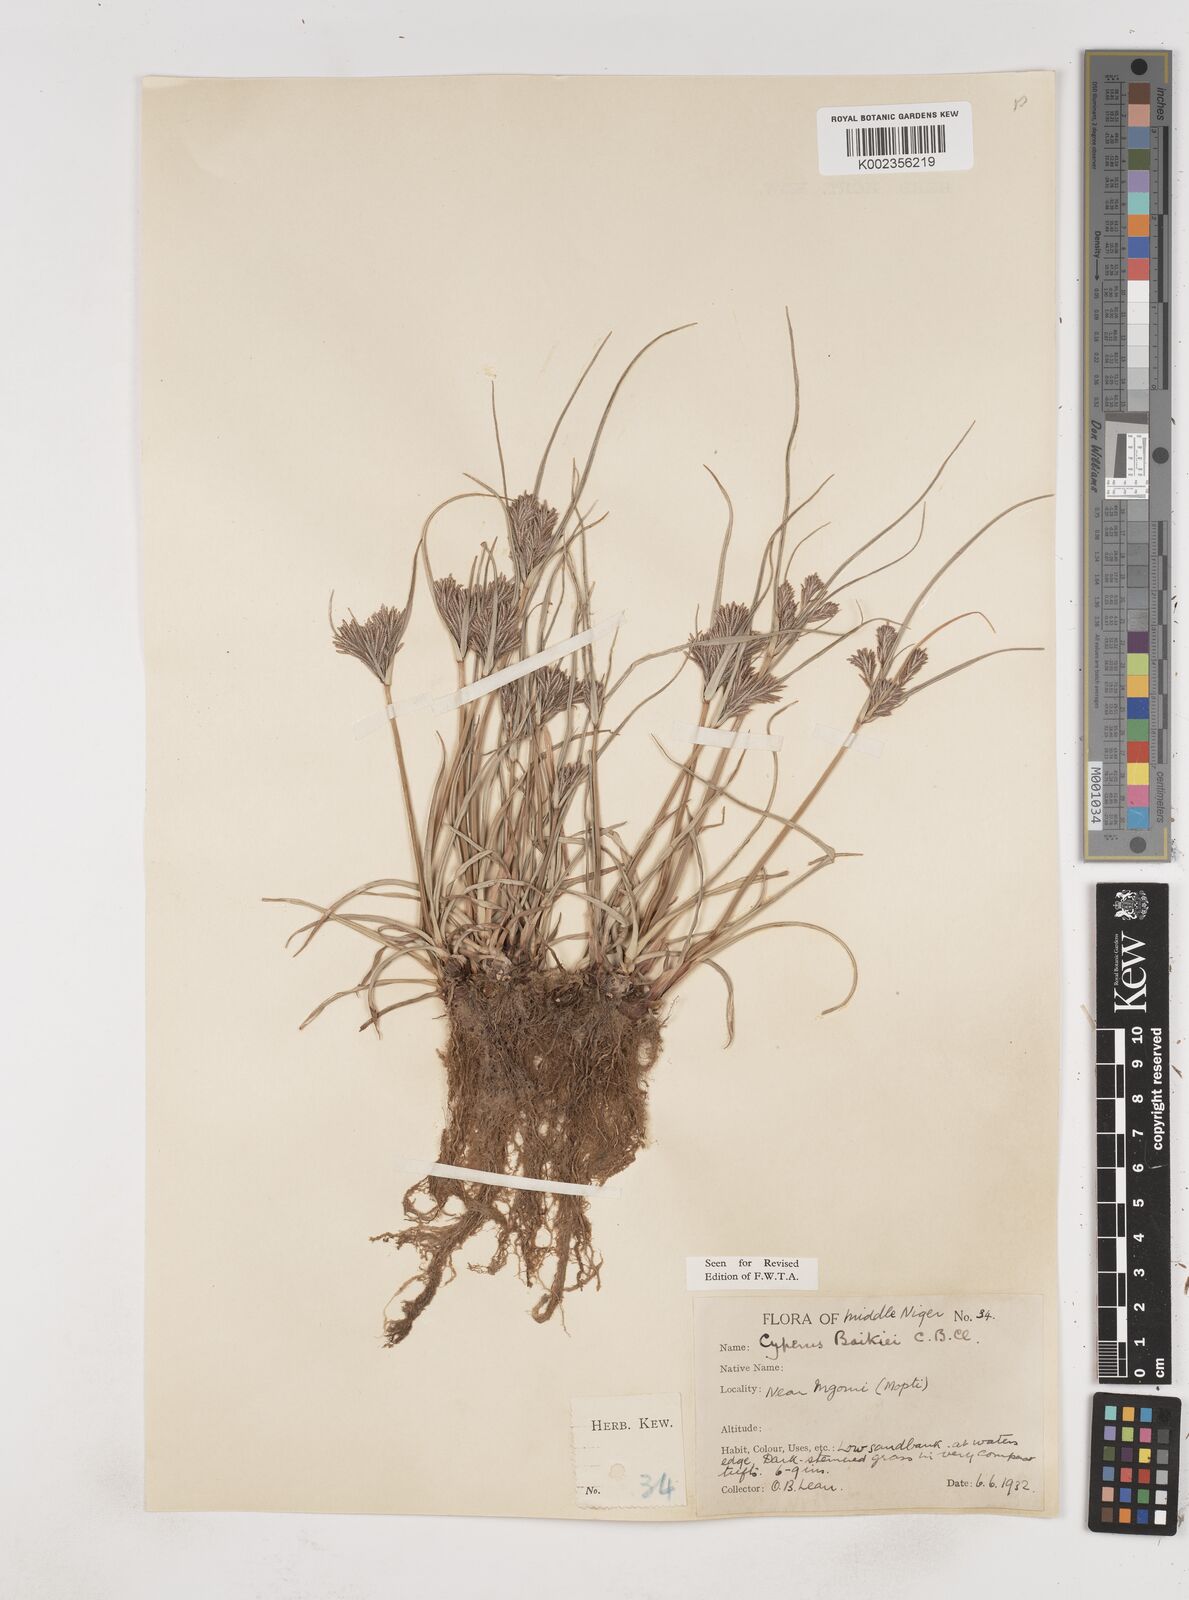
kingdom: Plantae
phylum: Tracheophyta
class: Liliopsida
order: Poales
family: Cyperaceae
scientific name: Cyperaceae
